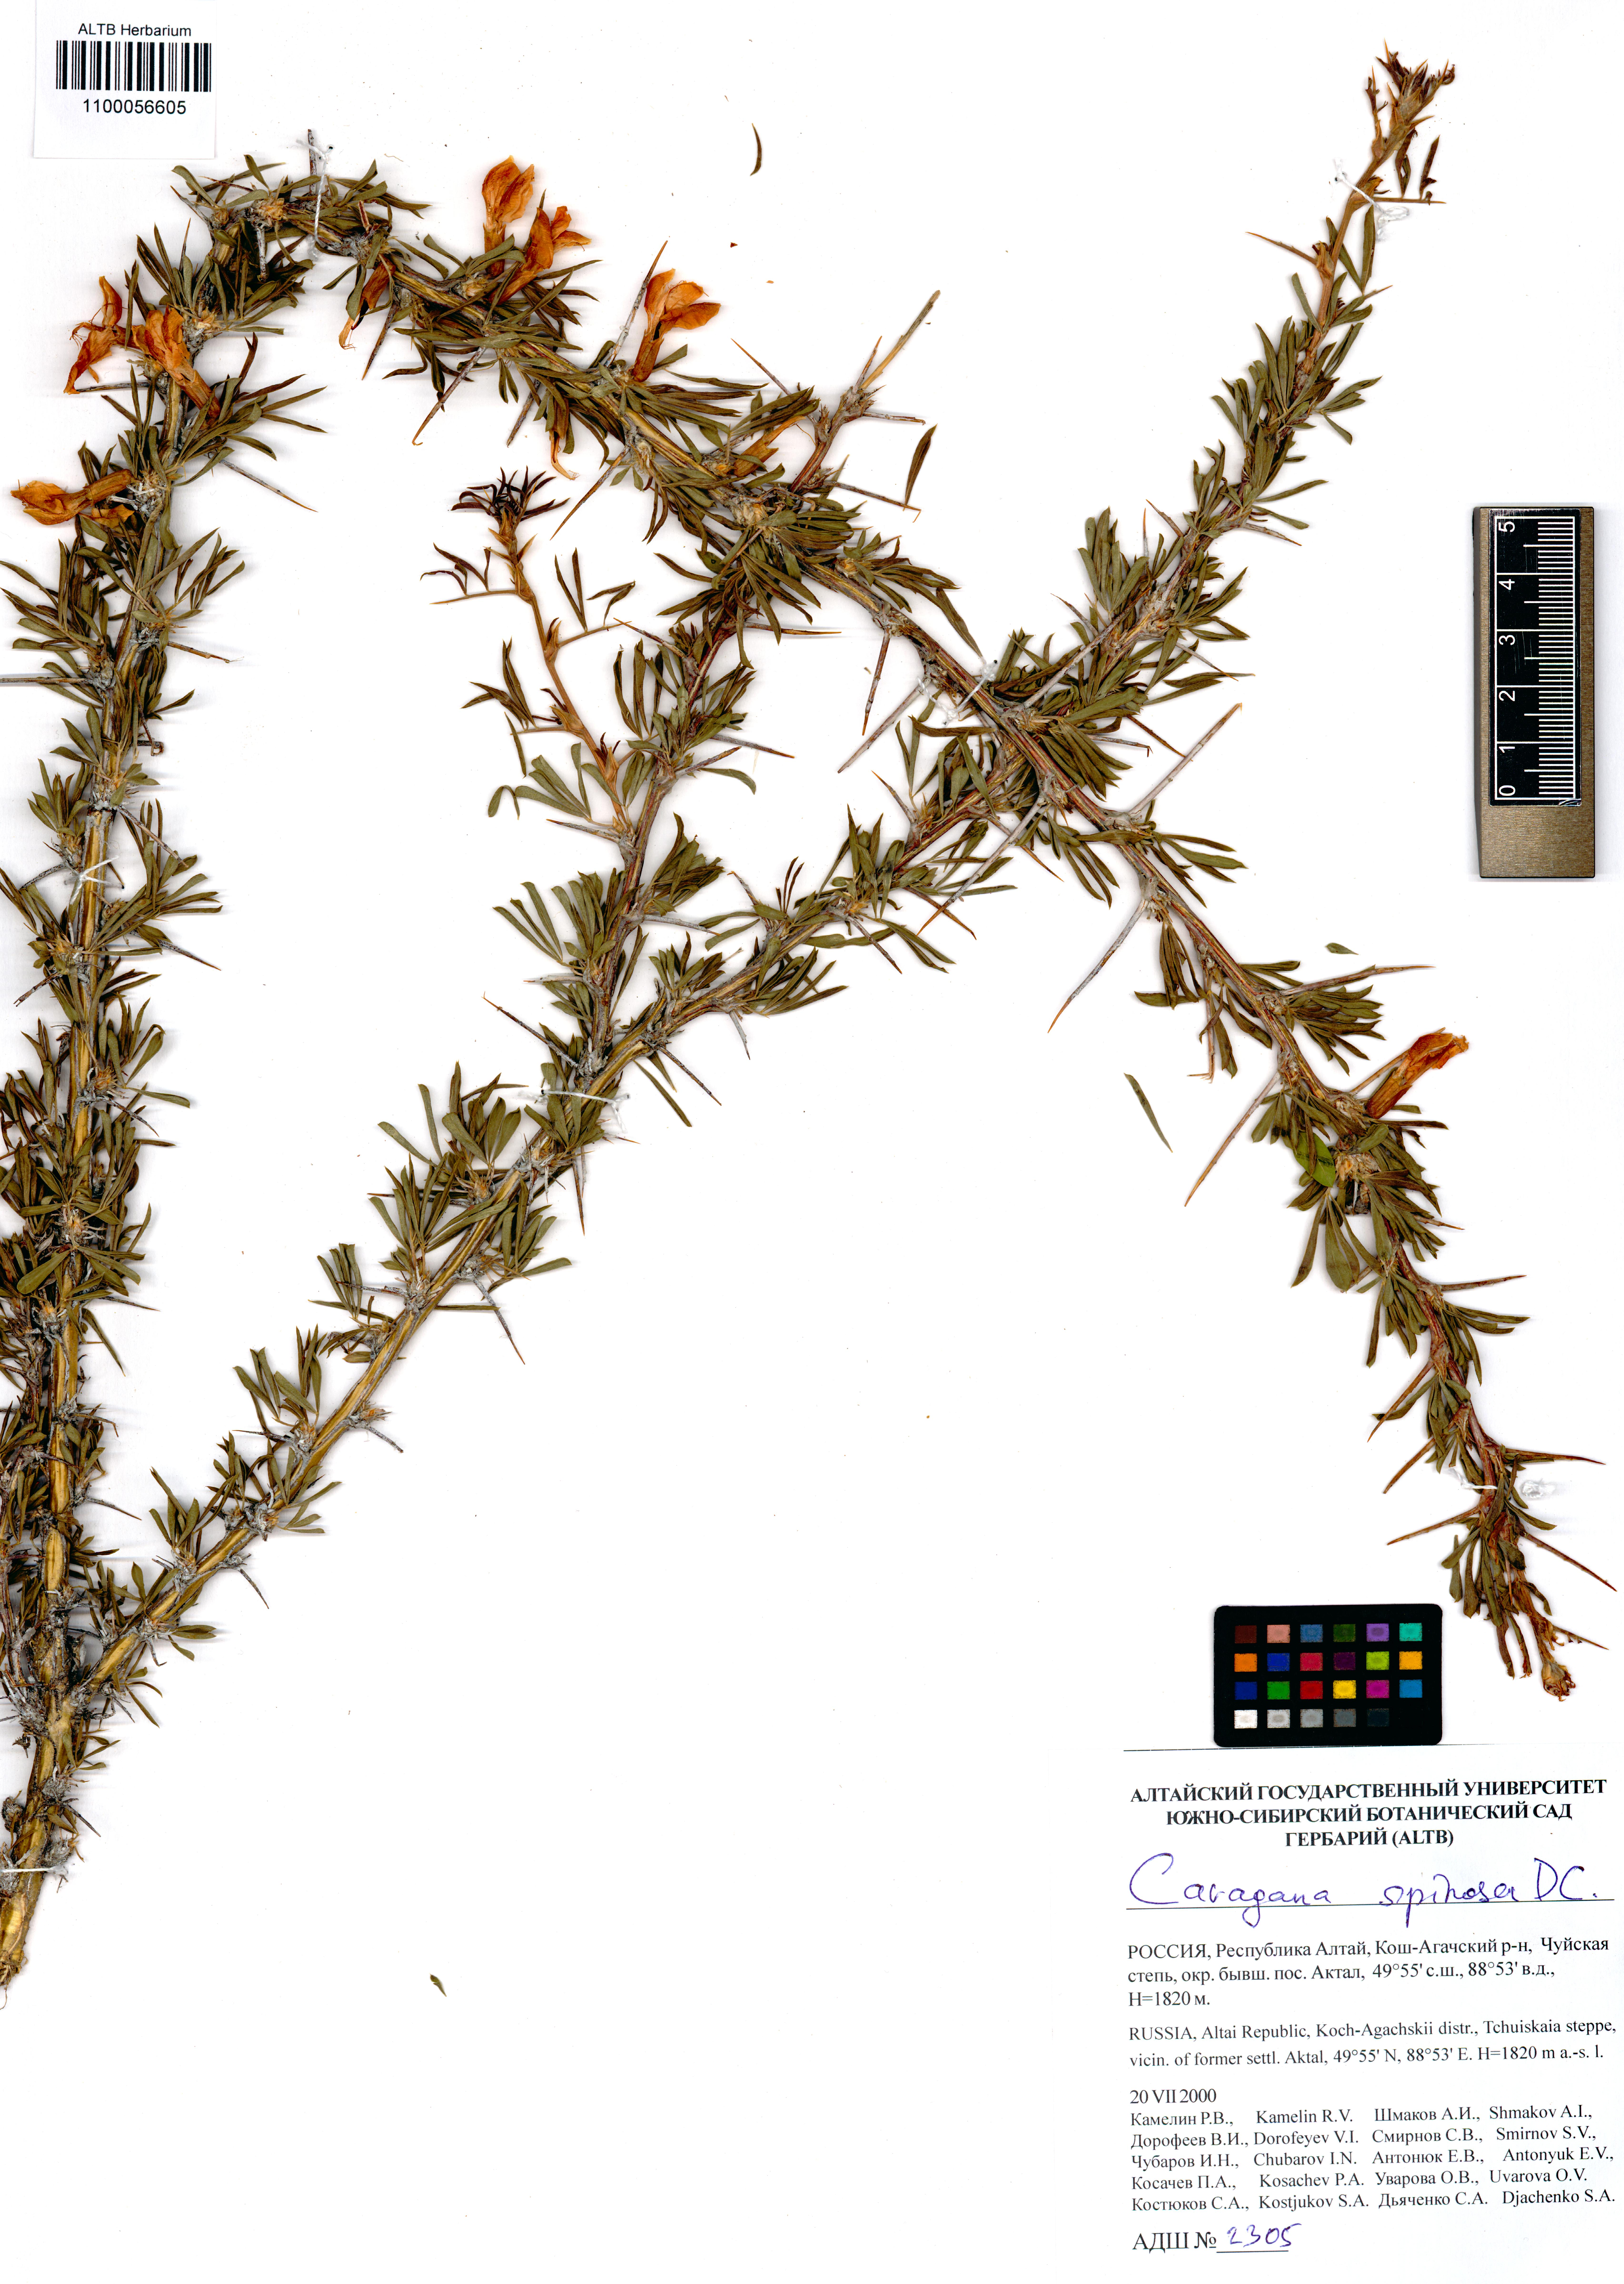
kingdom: Plantae
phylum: Tracheophyta
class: Magnoliopsida
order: Fabales
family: Fabaceae
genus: Caragana
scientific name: Caragana spinosa
